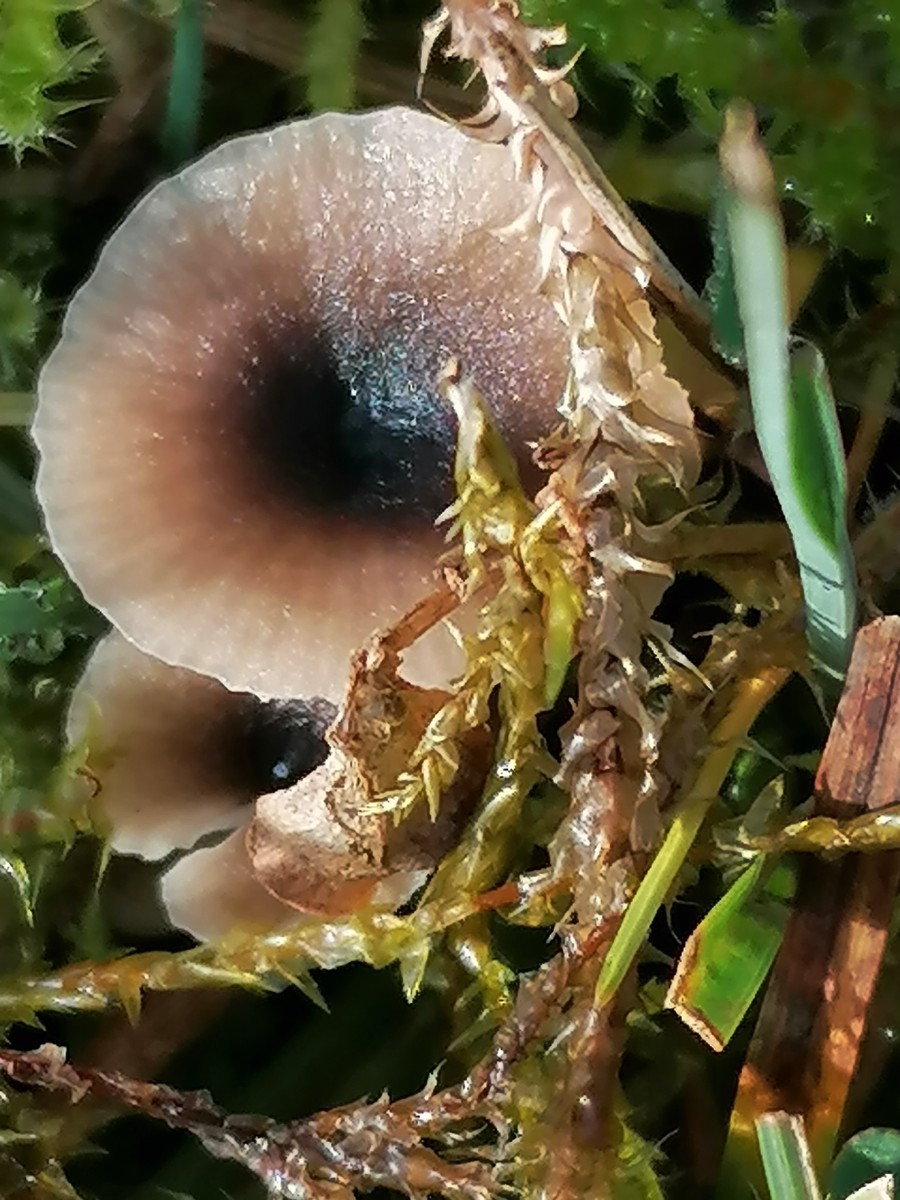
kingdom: Fungi
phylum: Basidiomycota
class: Agaricomycetes
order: Hymenochaetales
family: Rickenellaceae
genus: Rickenella
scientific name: Rickenella swartzii
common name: finstokket mosnavlehat
